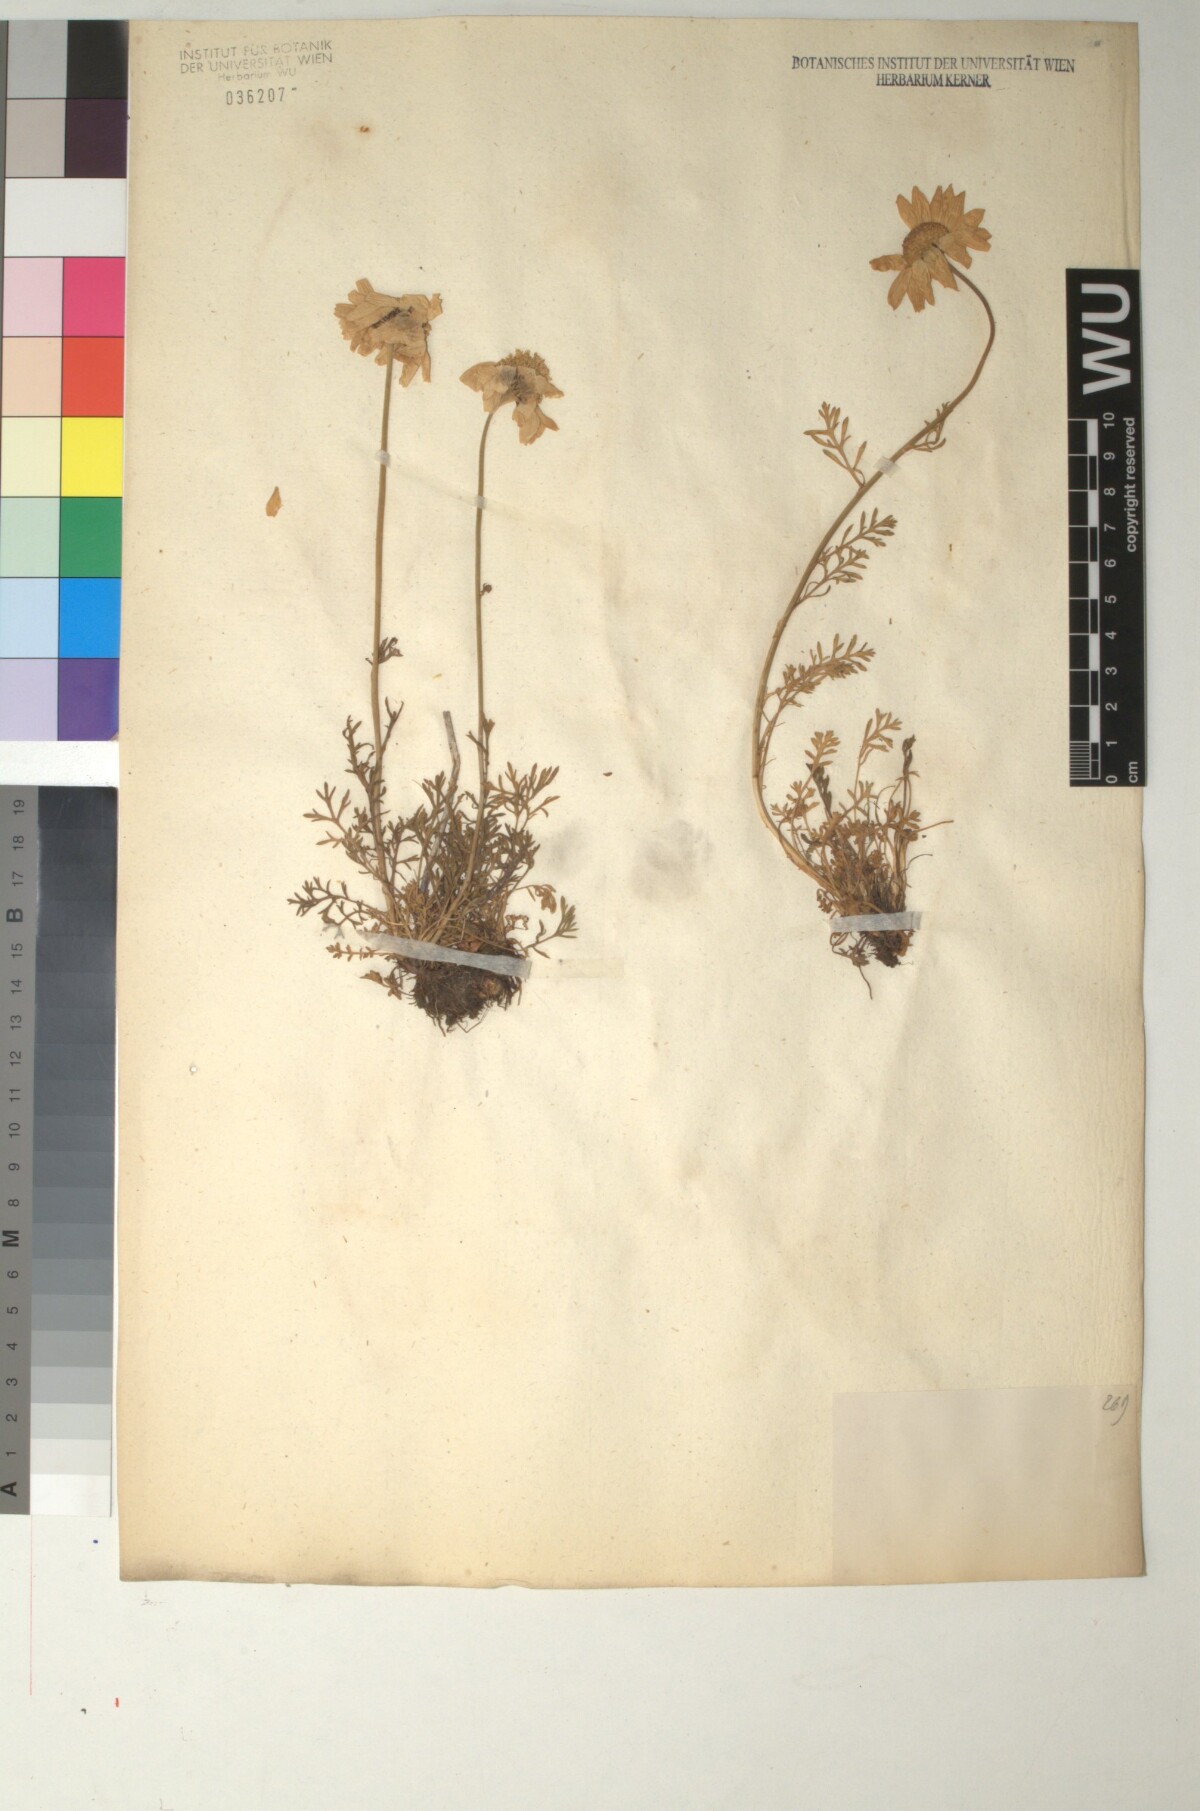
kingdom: Plantae
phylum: Tracheophyta
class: Magnoliopsida
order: Asterales
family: Asteraceae
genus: Anthemis
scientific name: Anthemis cretica
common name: Mountain dog-daisy
